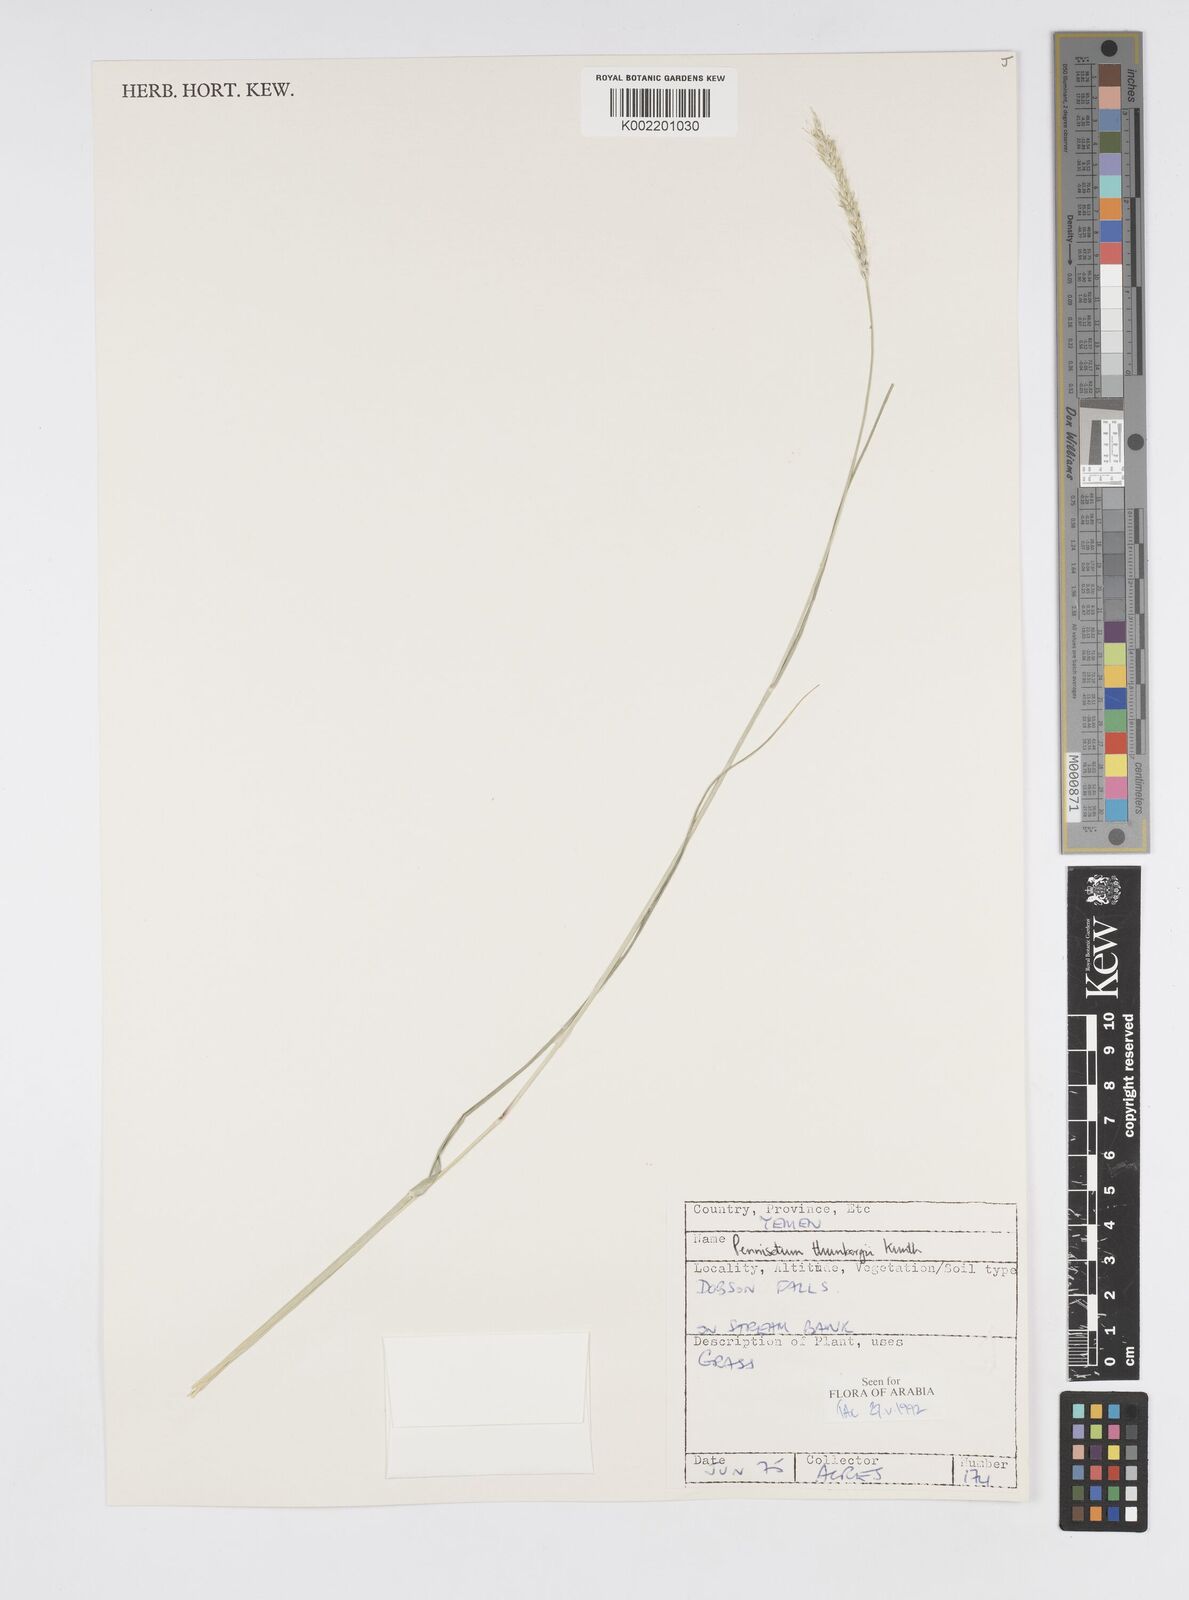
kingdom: Plantae
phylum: Tracheophyta
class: Liliopsida
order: Poales
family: Poaceae
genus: Cenchrus
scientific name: Cenchrus geniculatus
